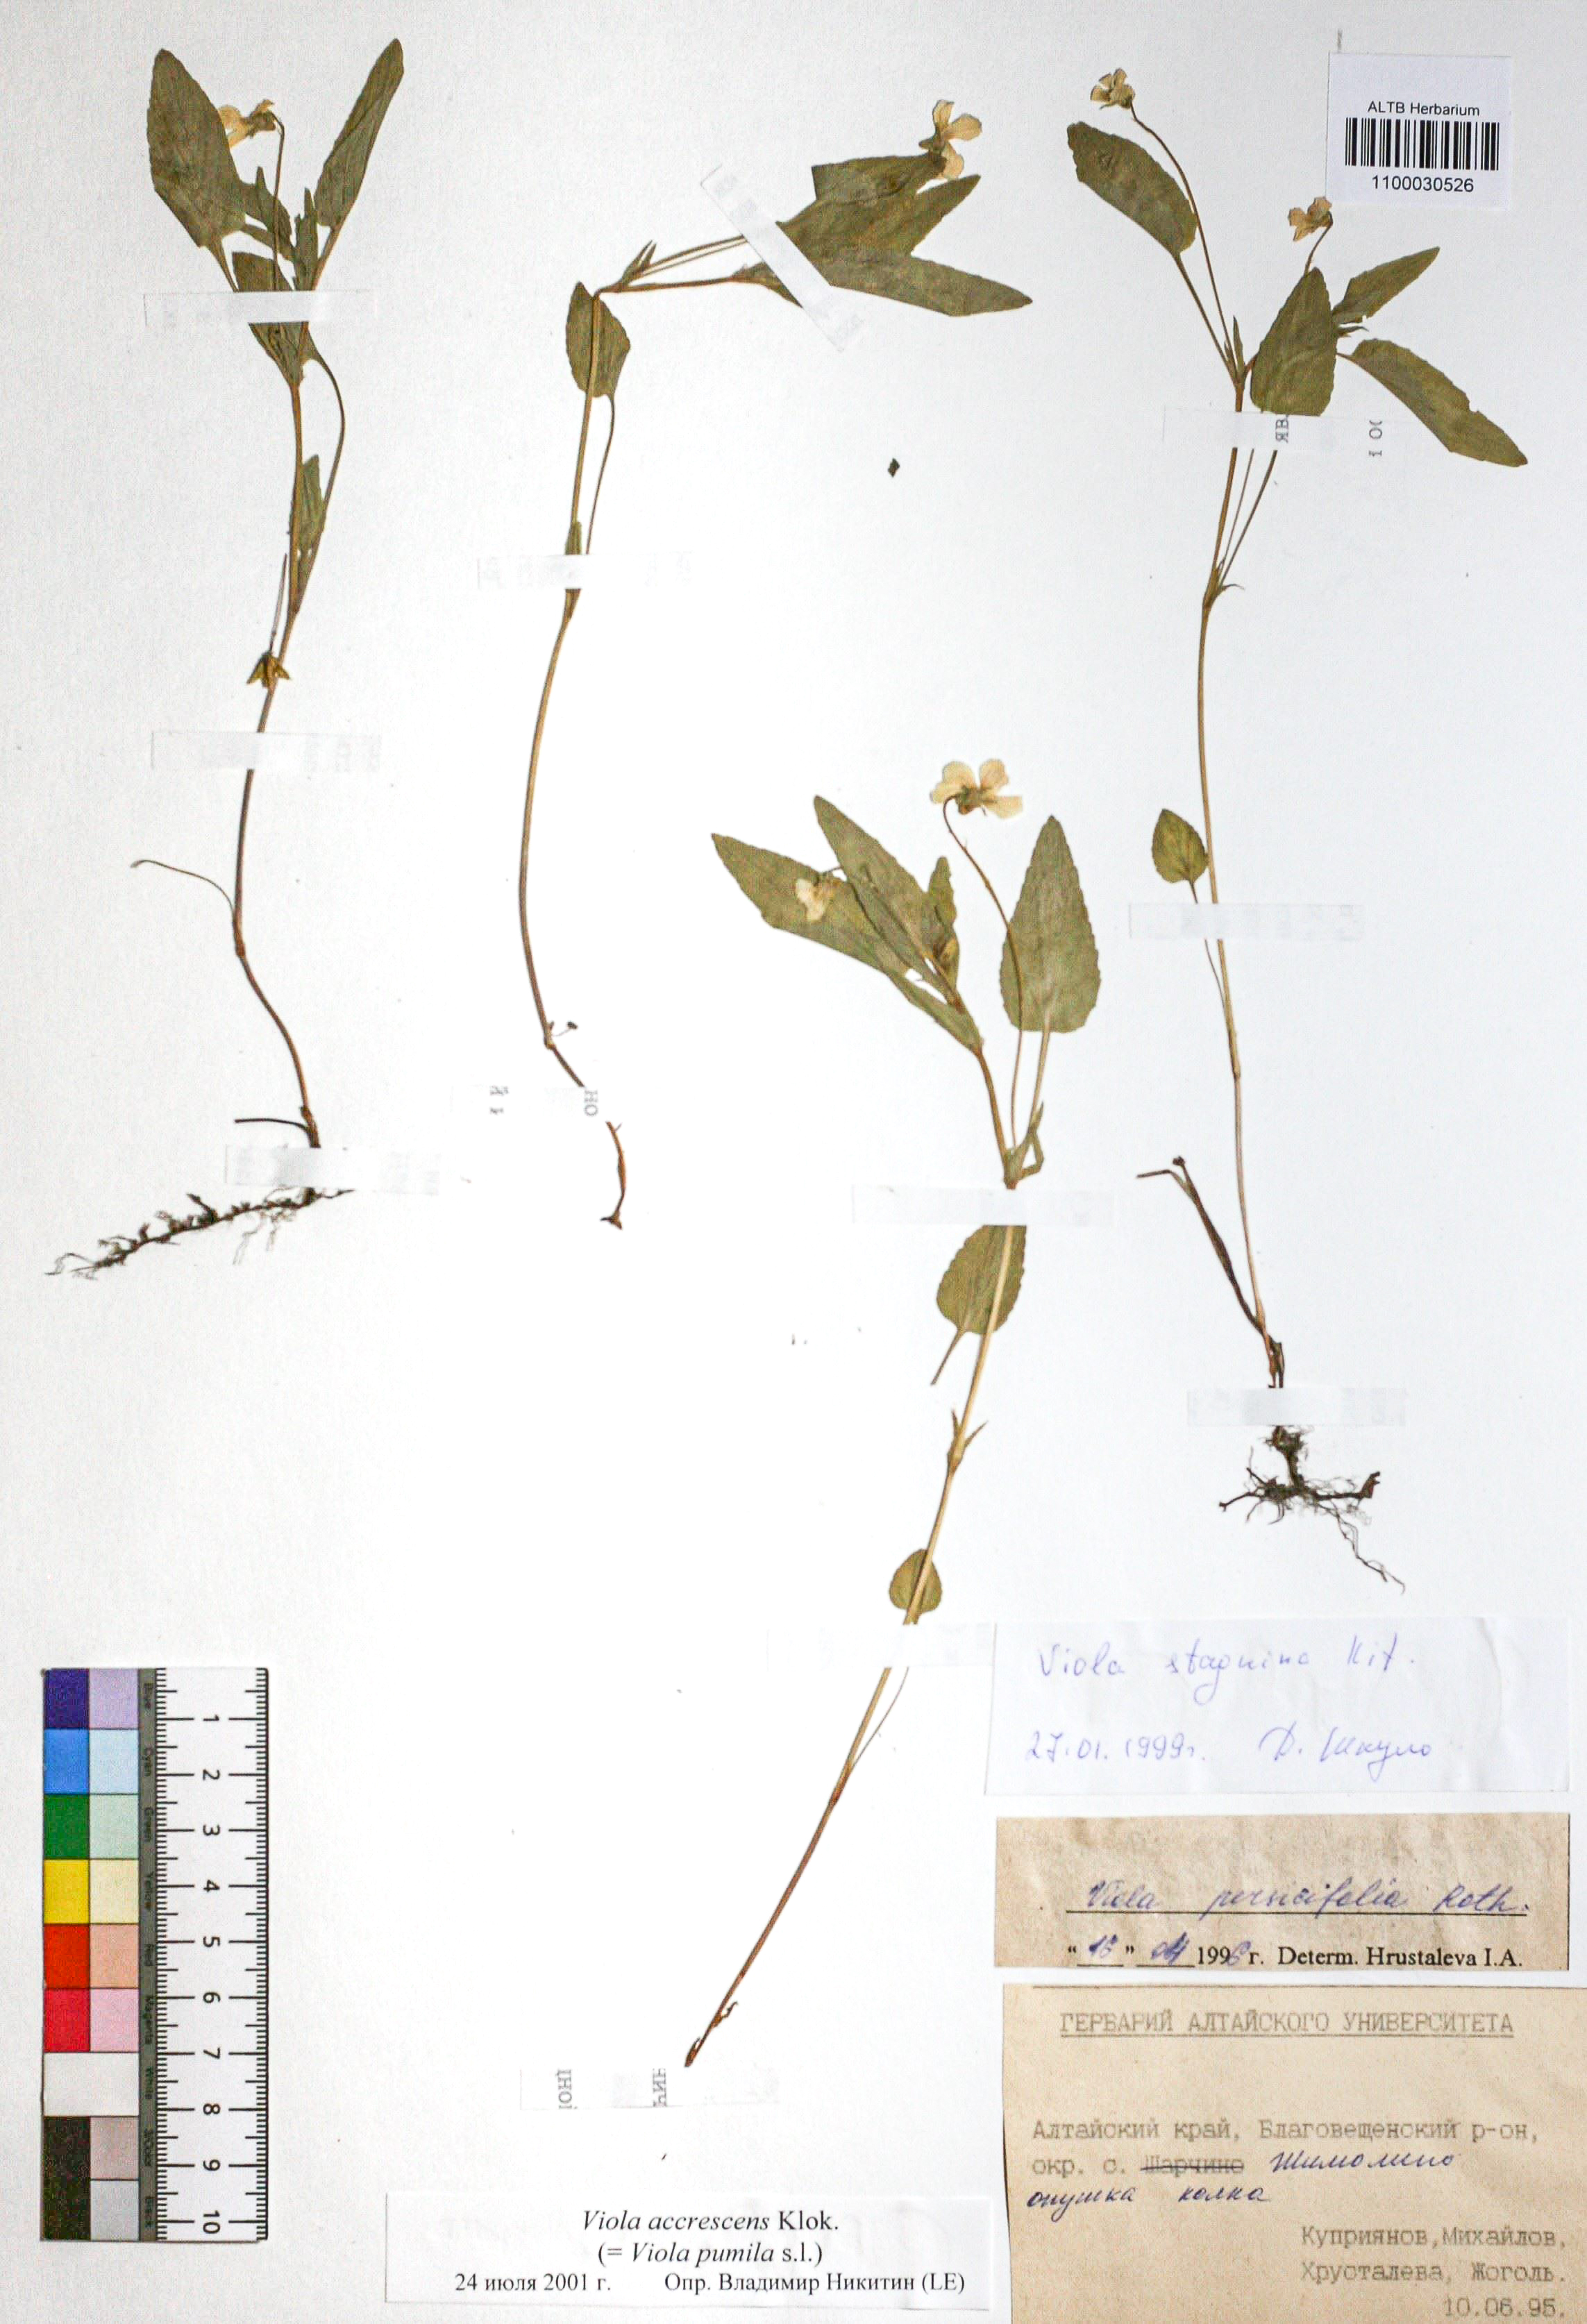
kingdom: Plantae
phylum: Tracheophyta
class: Magnoliopsida
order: Malpighiales
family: Violaceae
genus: Viola
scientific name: Viola pumila
